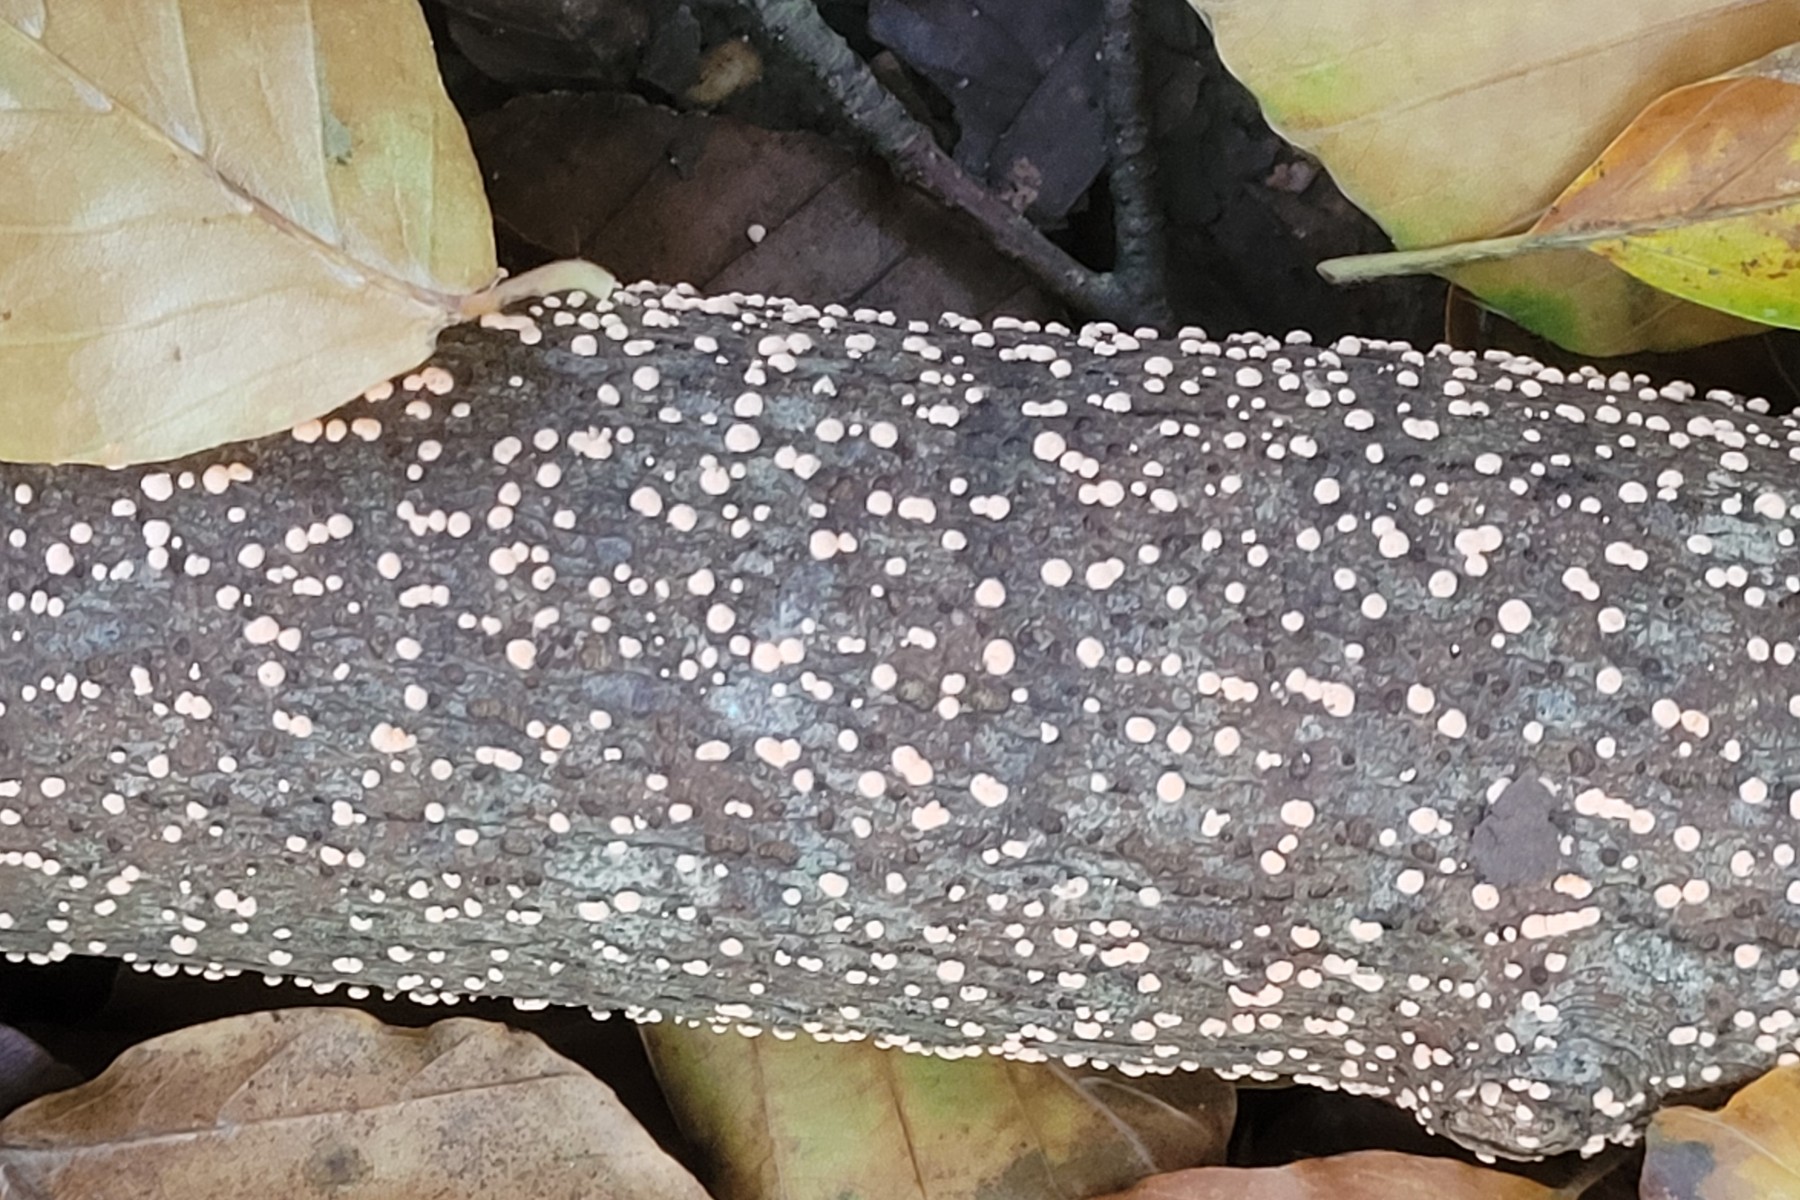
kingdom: Fungi
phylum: Ascomycota
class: Sordariomycetes
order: Hypocreales
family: Nectriaceae
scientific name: Nectriaceae
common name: cinnobersvampfamilien
